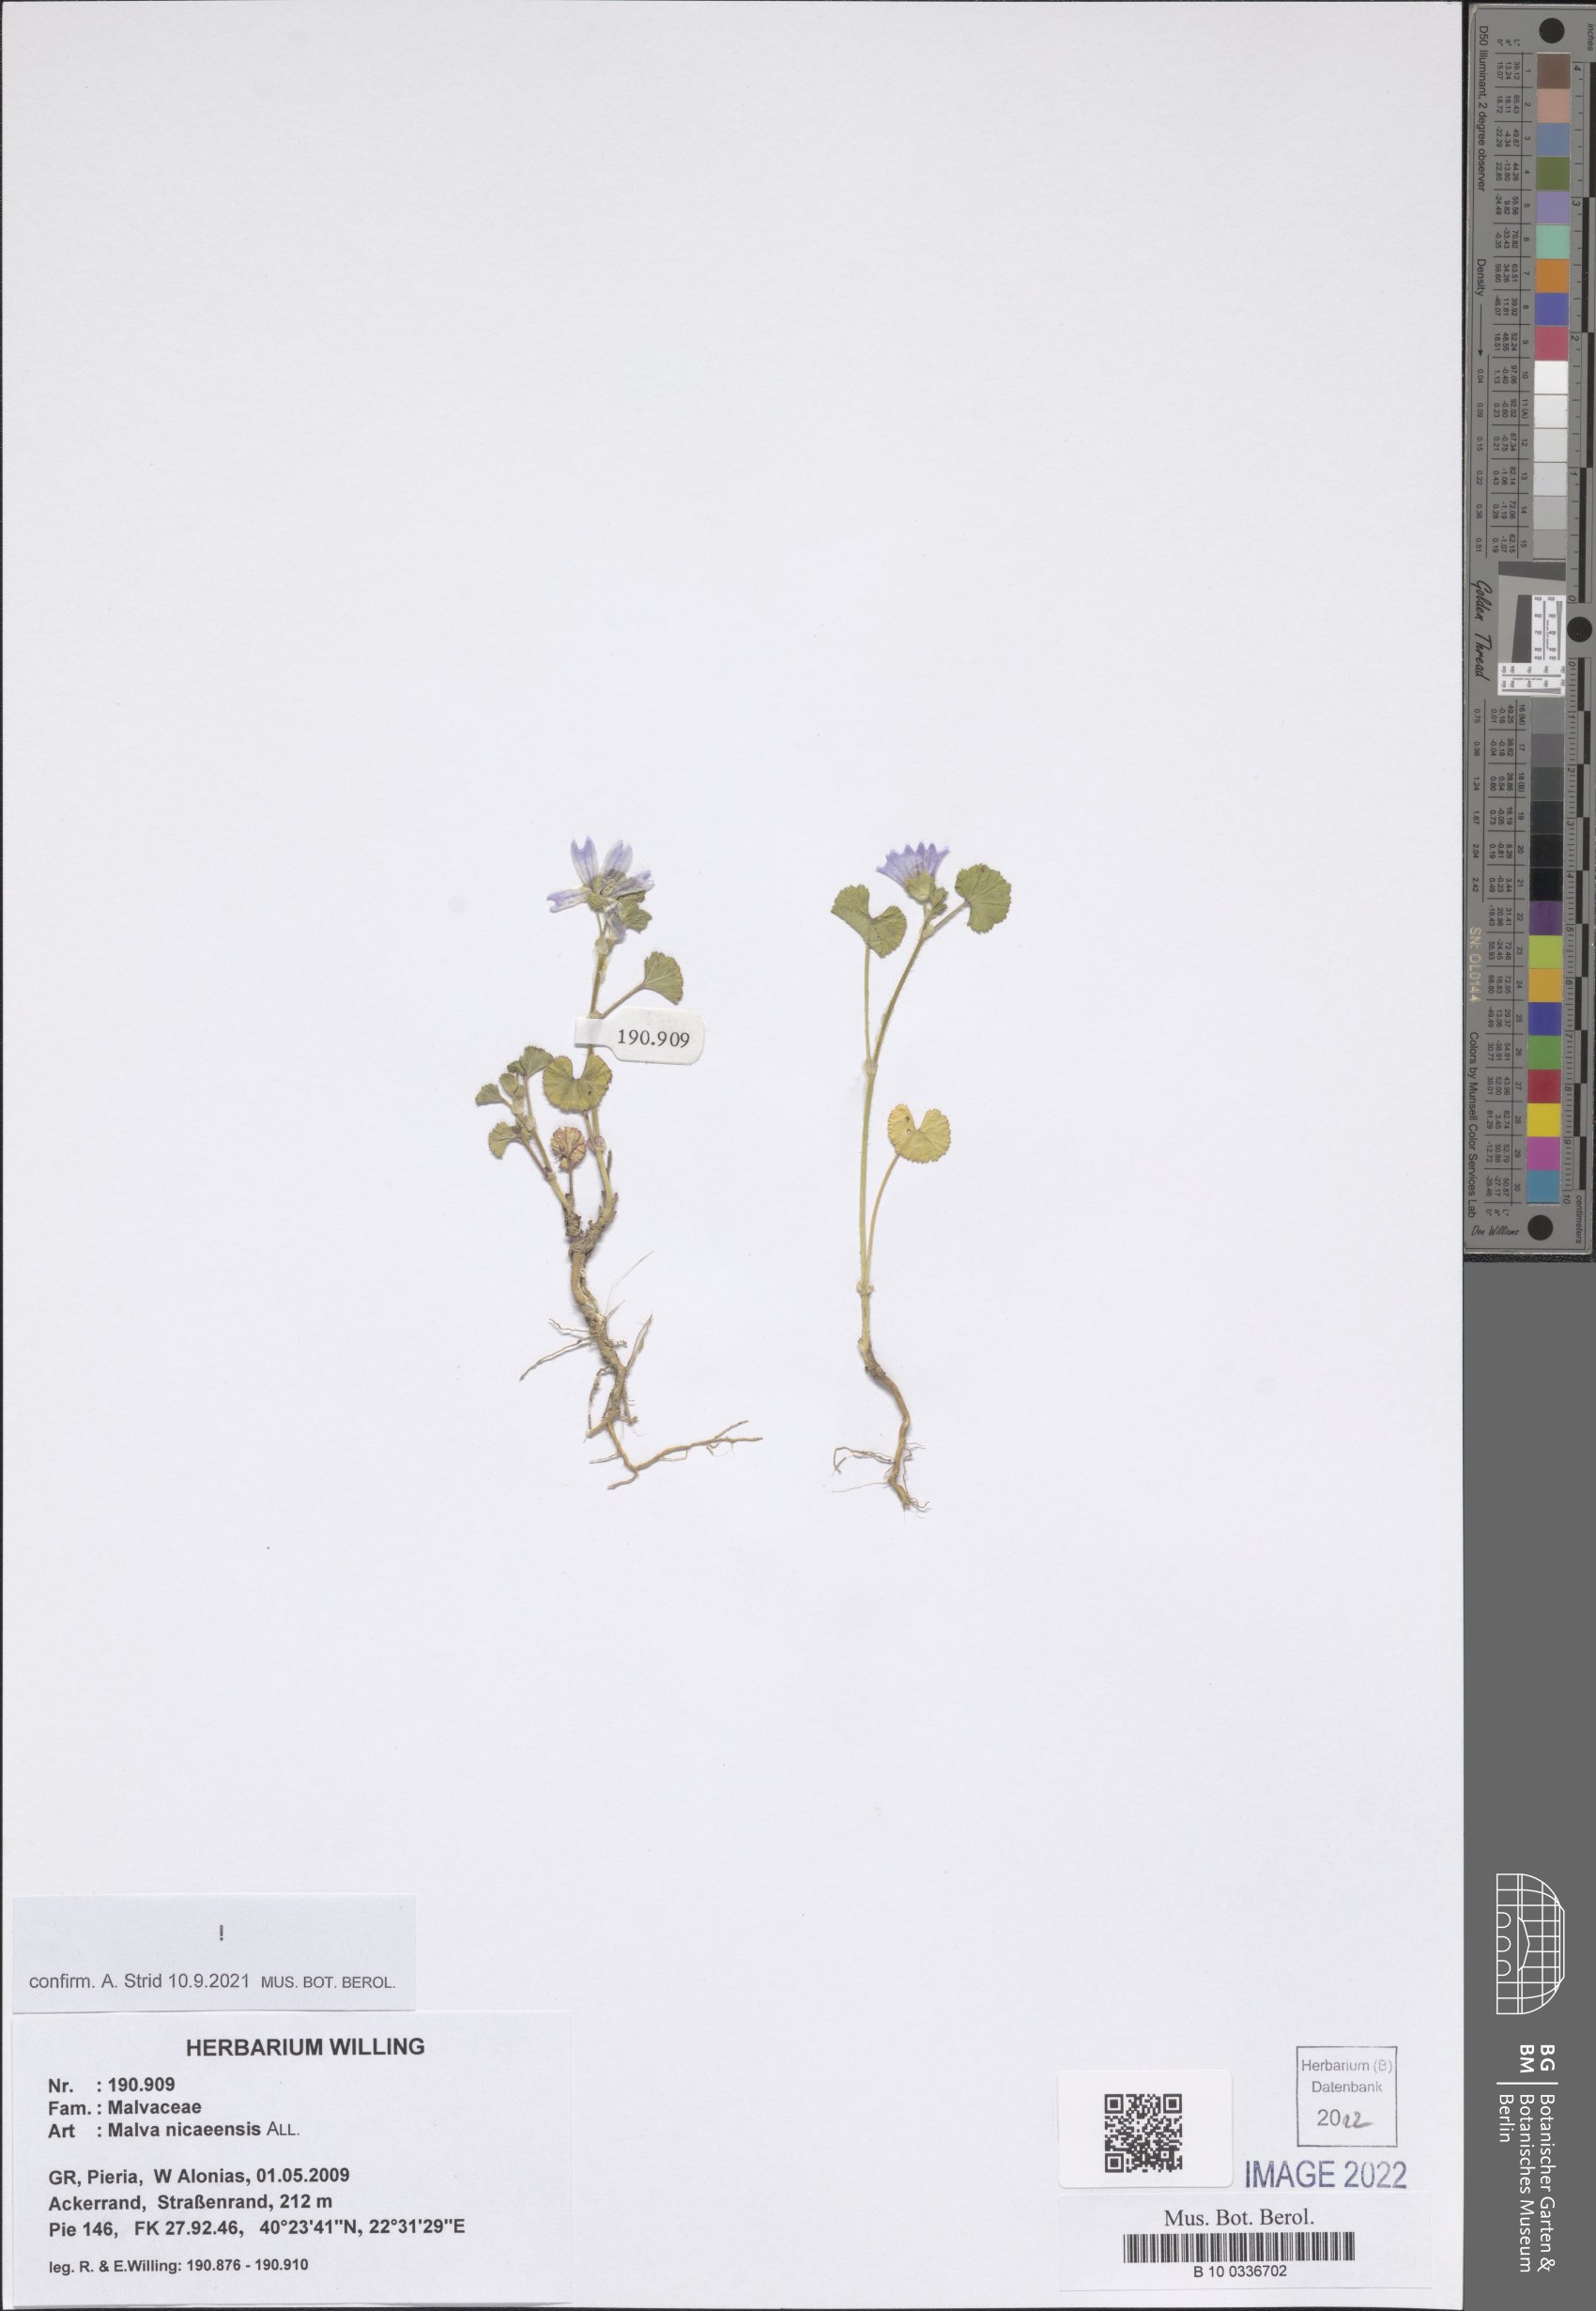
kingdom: Plantae
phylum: Tracheophyta
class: Magnoliopsida
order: Malvales
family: Malvaceae
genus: Malva
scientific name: Malva nicaeensis
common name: French mallow
